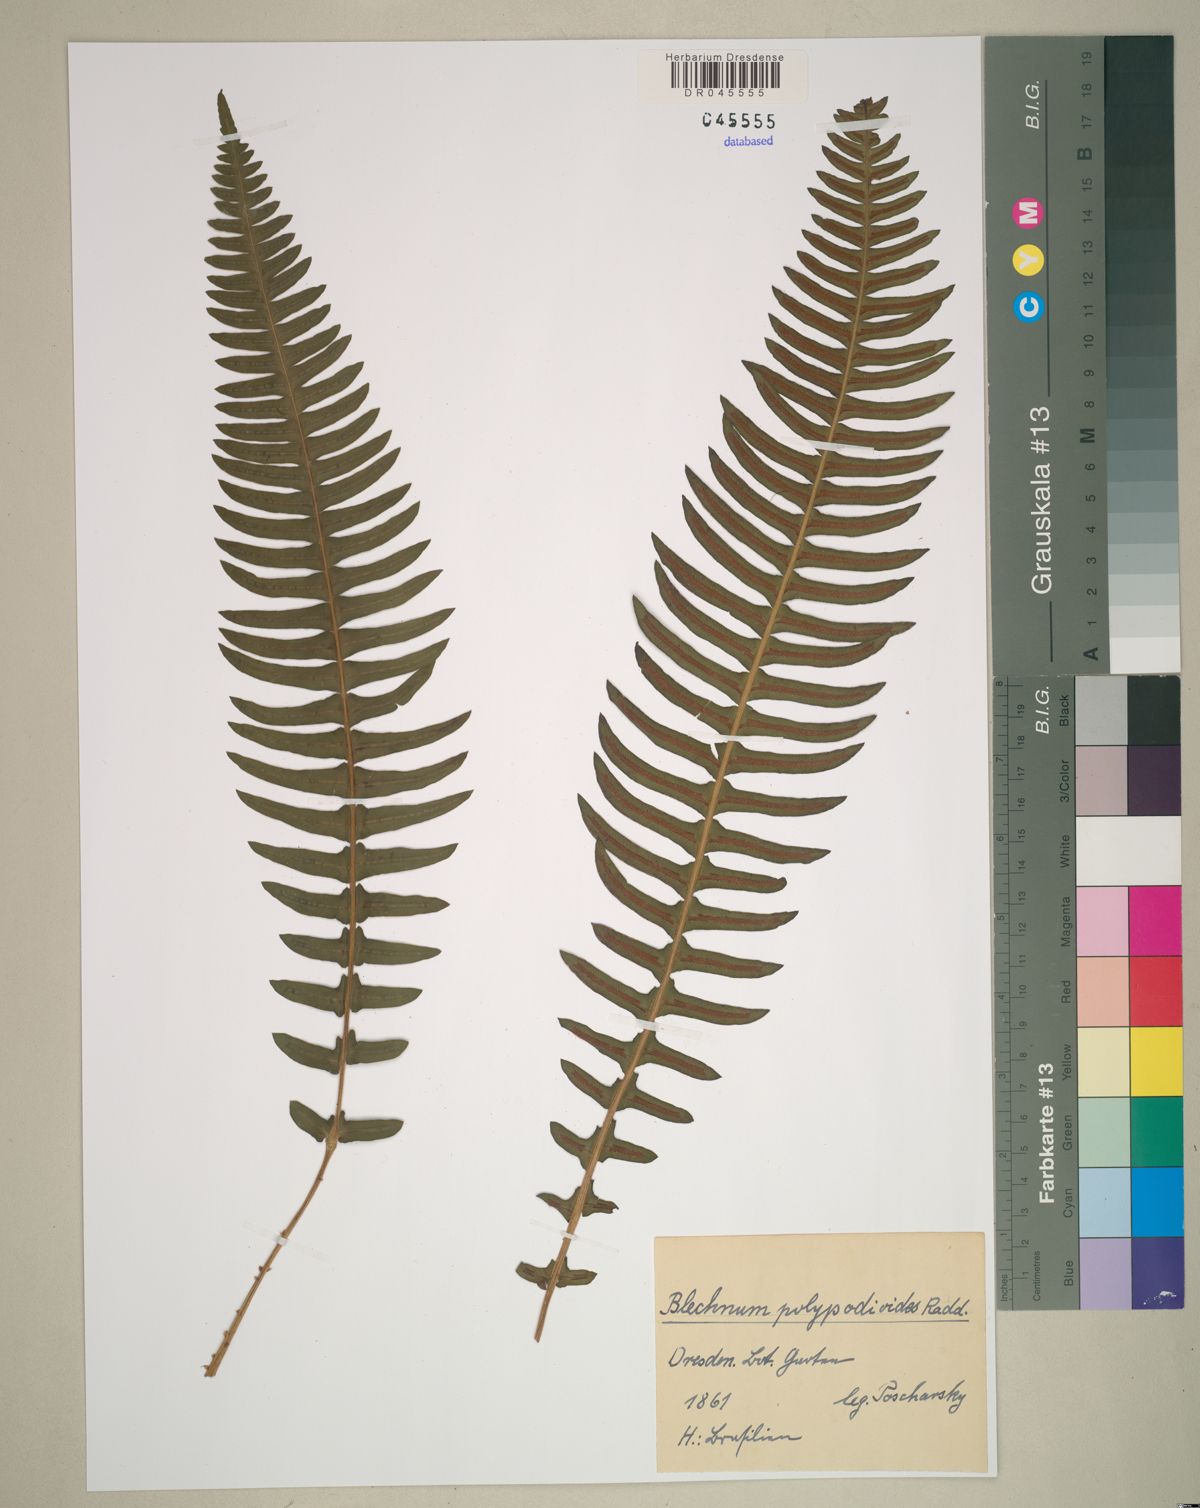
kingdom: Plantae
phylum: Tracheophyta
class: Polypodiopsida
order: Polypodiales
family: Blechnaceae
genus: Blechnum
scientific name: Blechnum polypodioides
